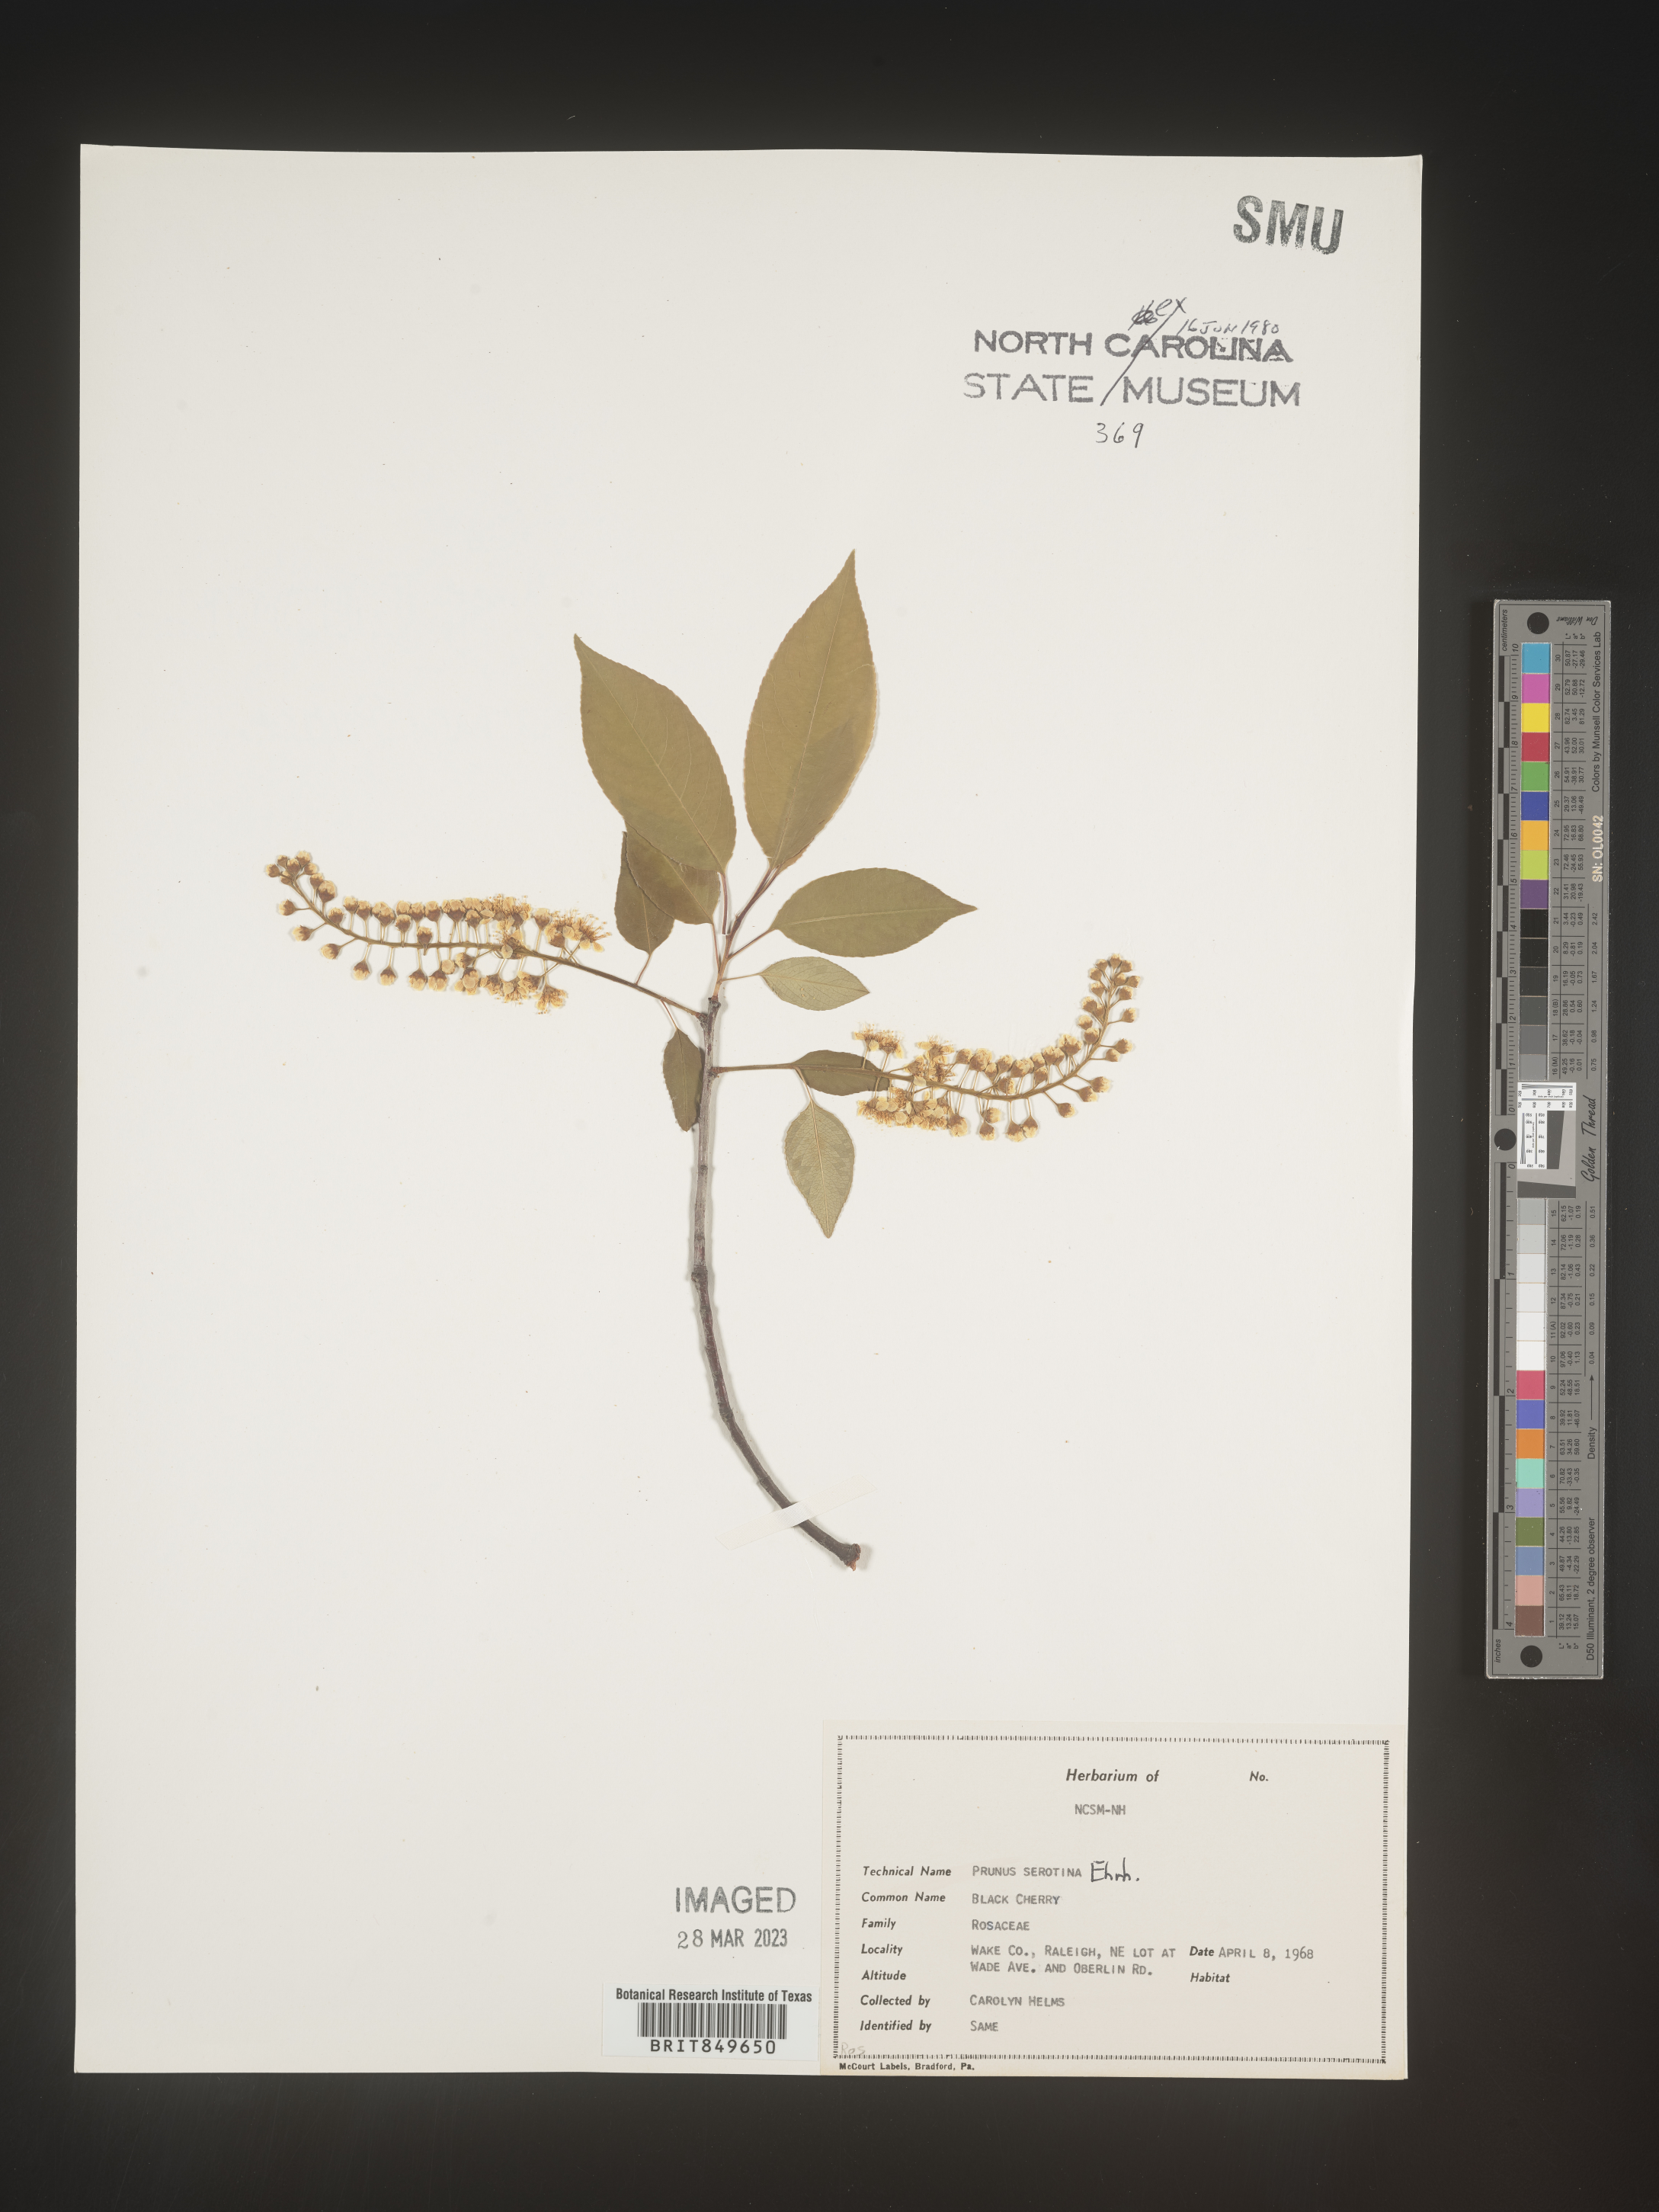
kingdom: Plantae
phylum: Tracheophyta
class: Magnoliopsida
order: Rosales
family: Rosaceae
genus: Prunus
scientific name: Prunus serotina
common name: Black cherry
